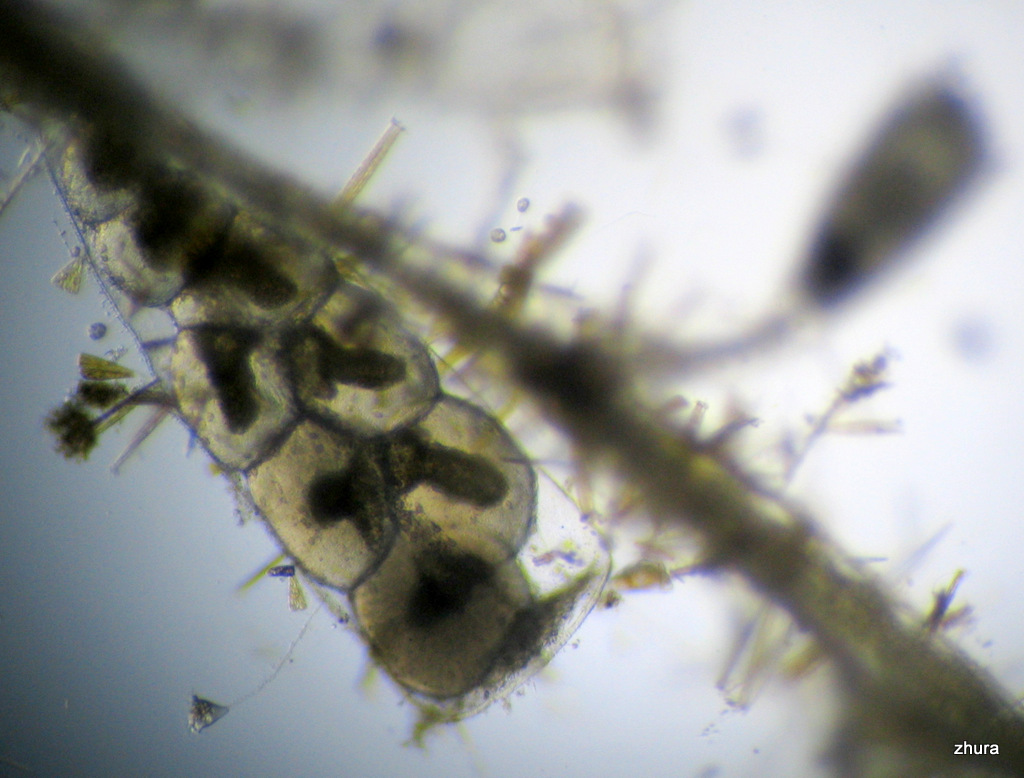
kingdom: Animalia
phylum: Cnidaria
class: Hydrozoa
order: Leptothecata
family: Campanulariidae
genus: Gonothyraea
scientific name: Gonothyraea loveni
